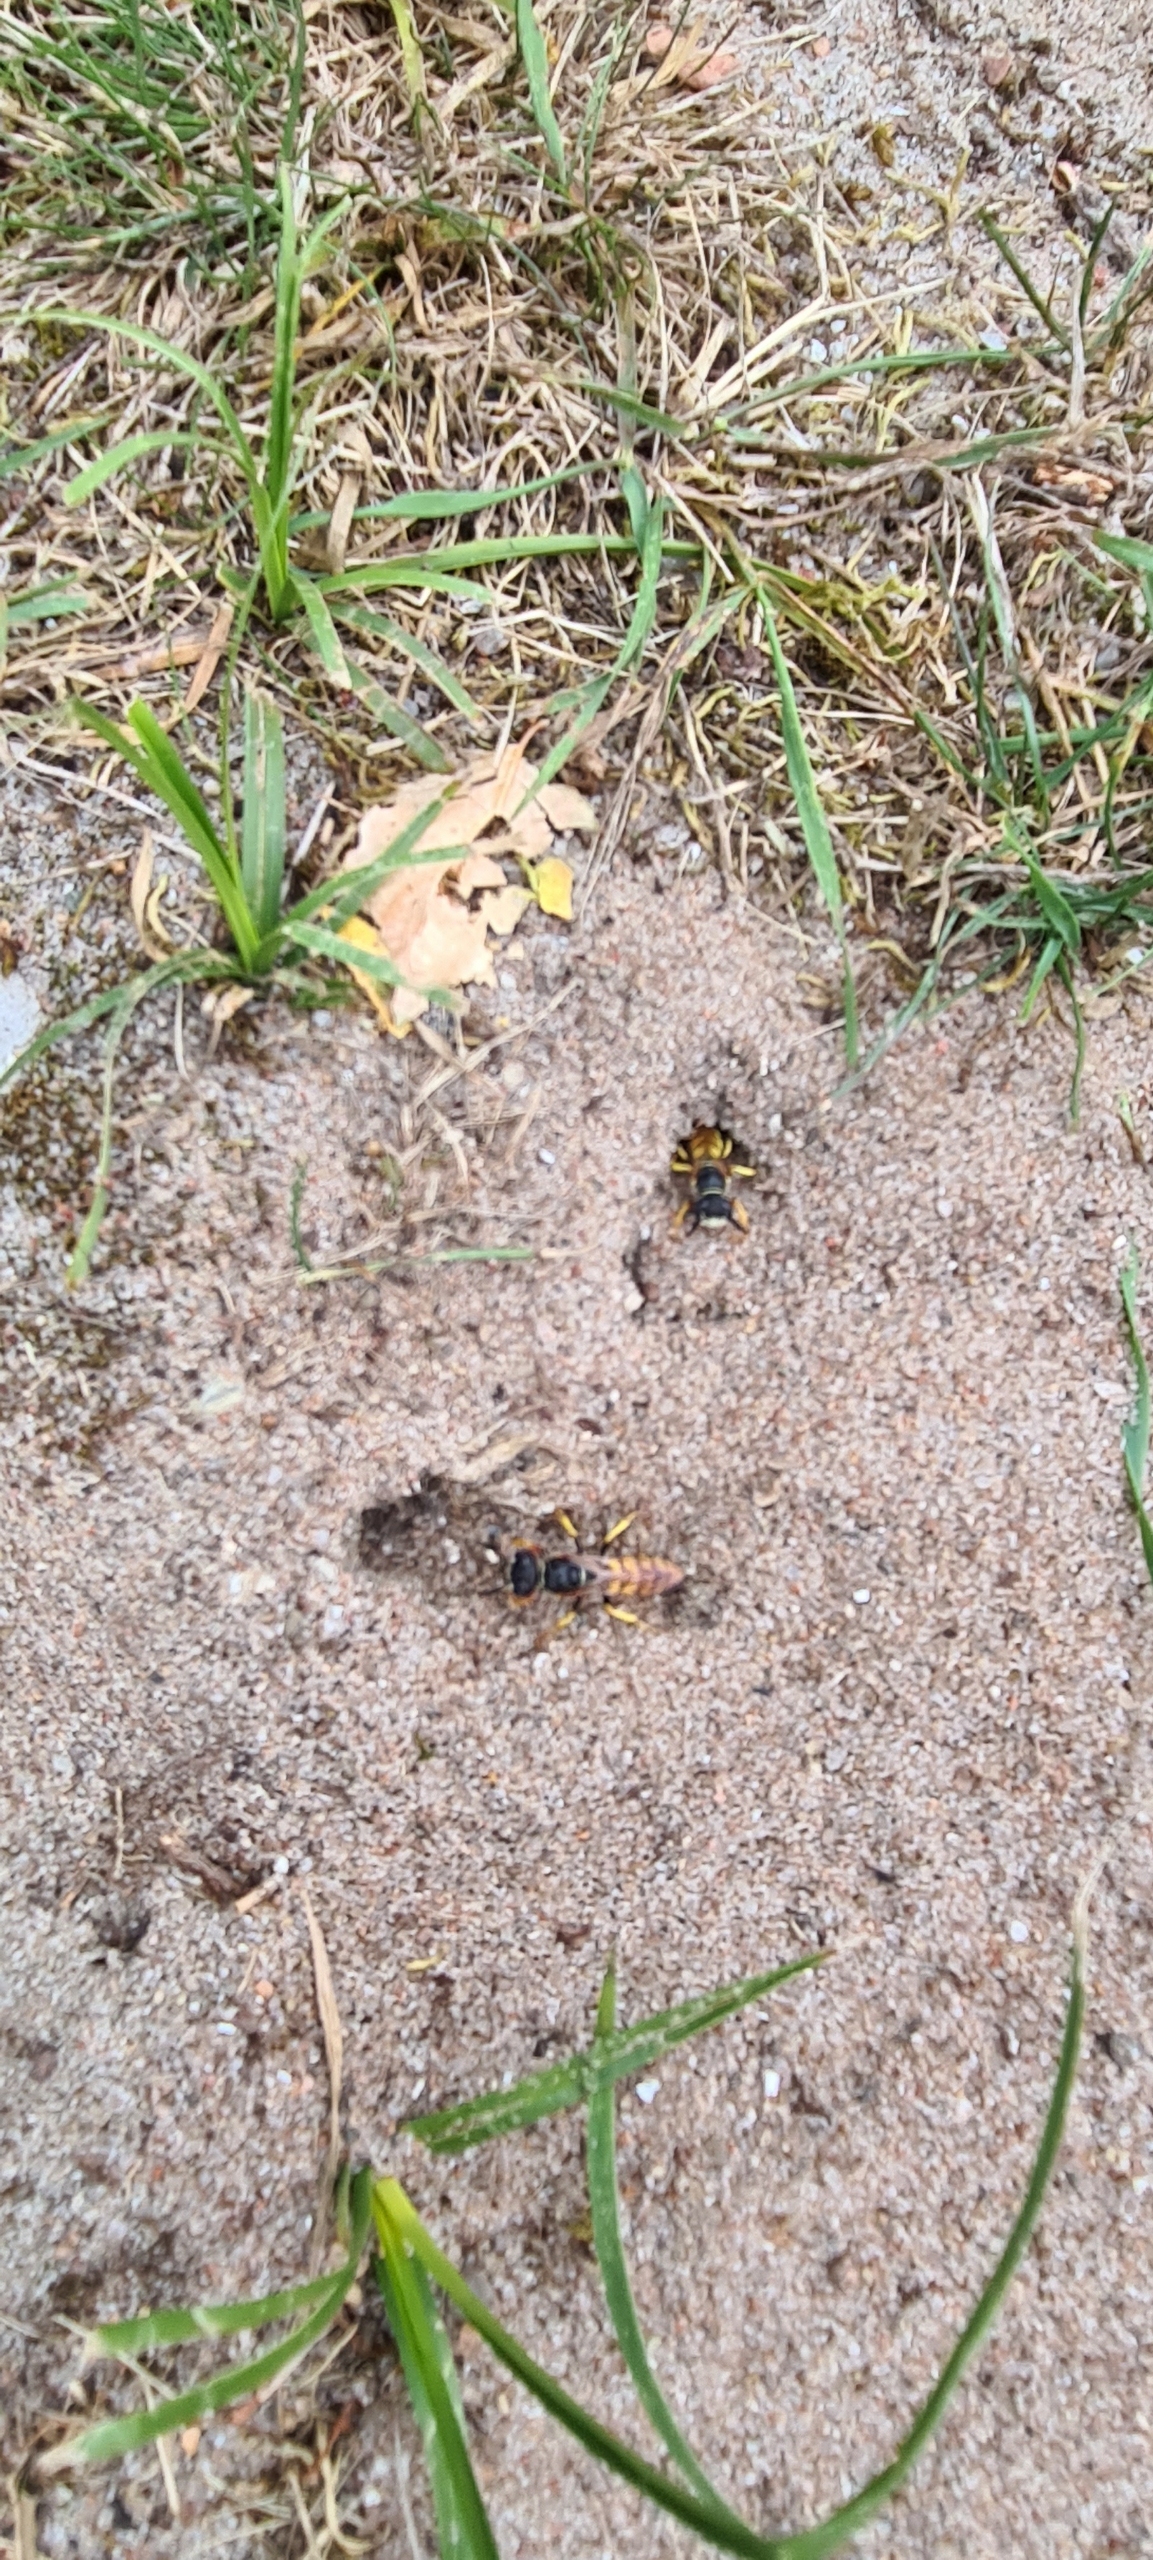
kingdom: Animalia
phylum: Arthropoda
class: Insecta
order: Hymenoptera
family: Crabronidae
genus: Philanthus
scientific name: Philanthus triangulum
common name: Biulv
